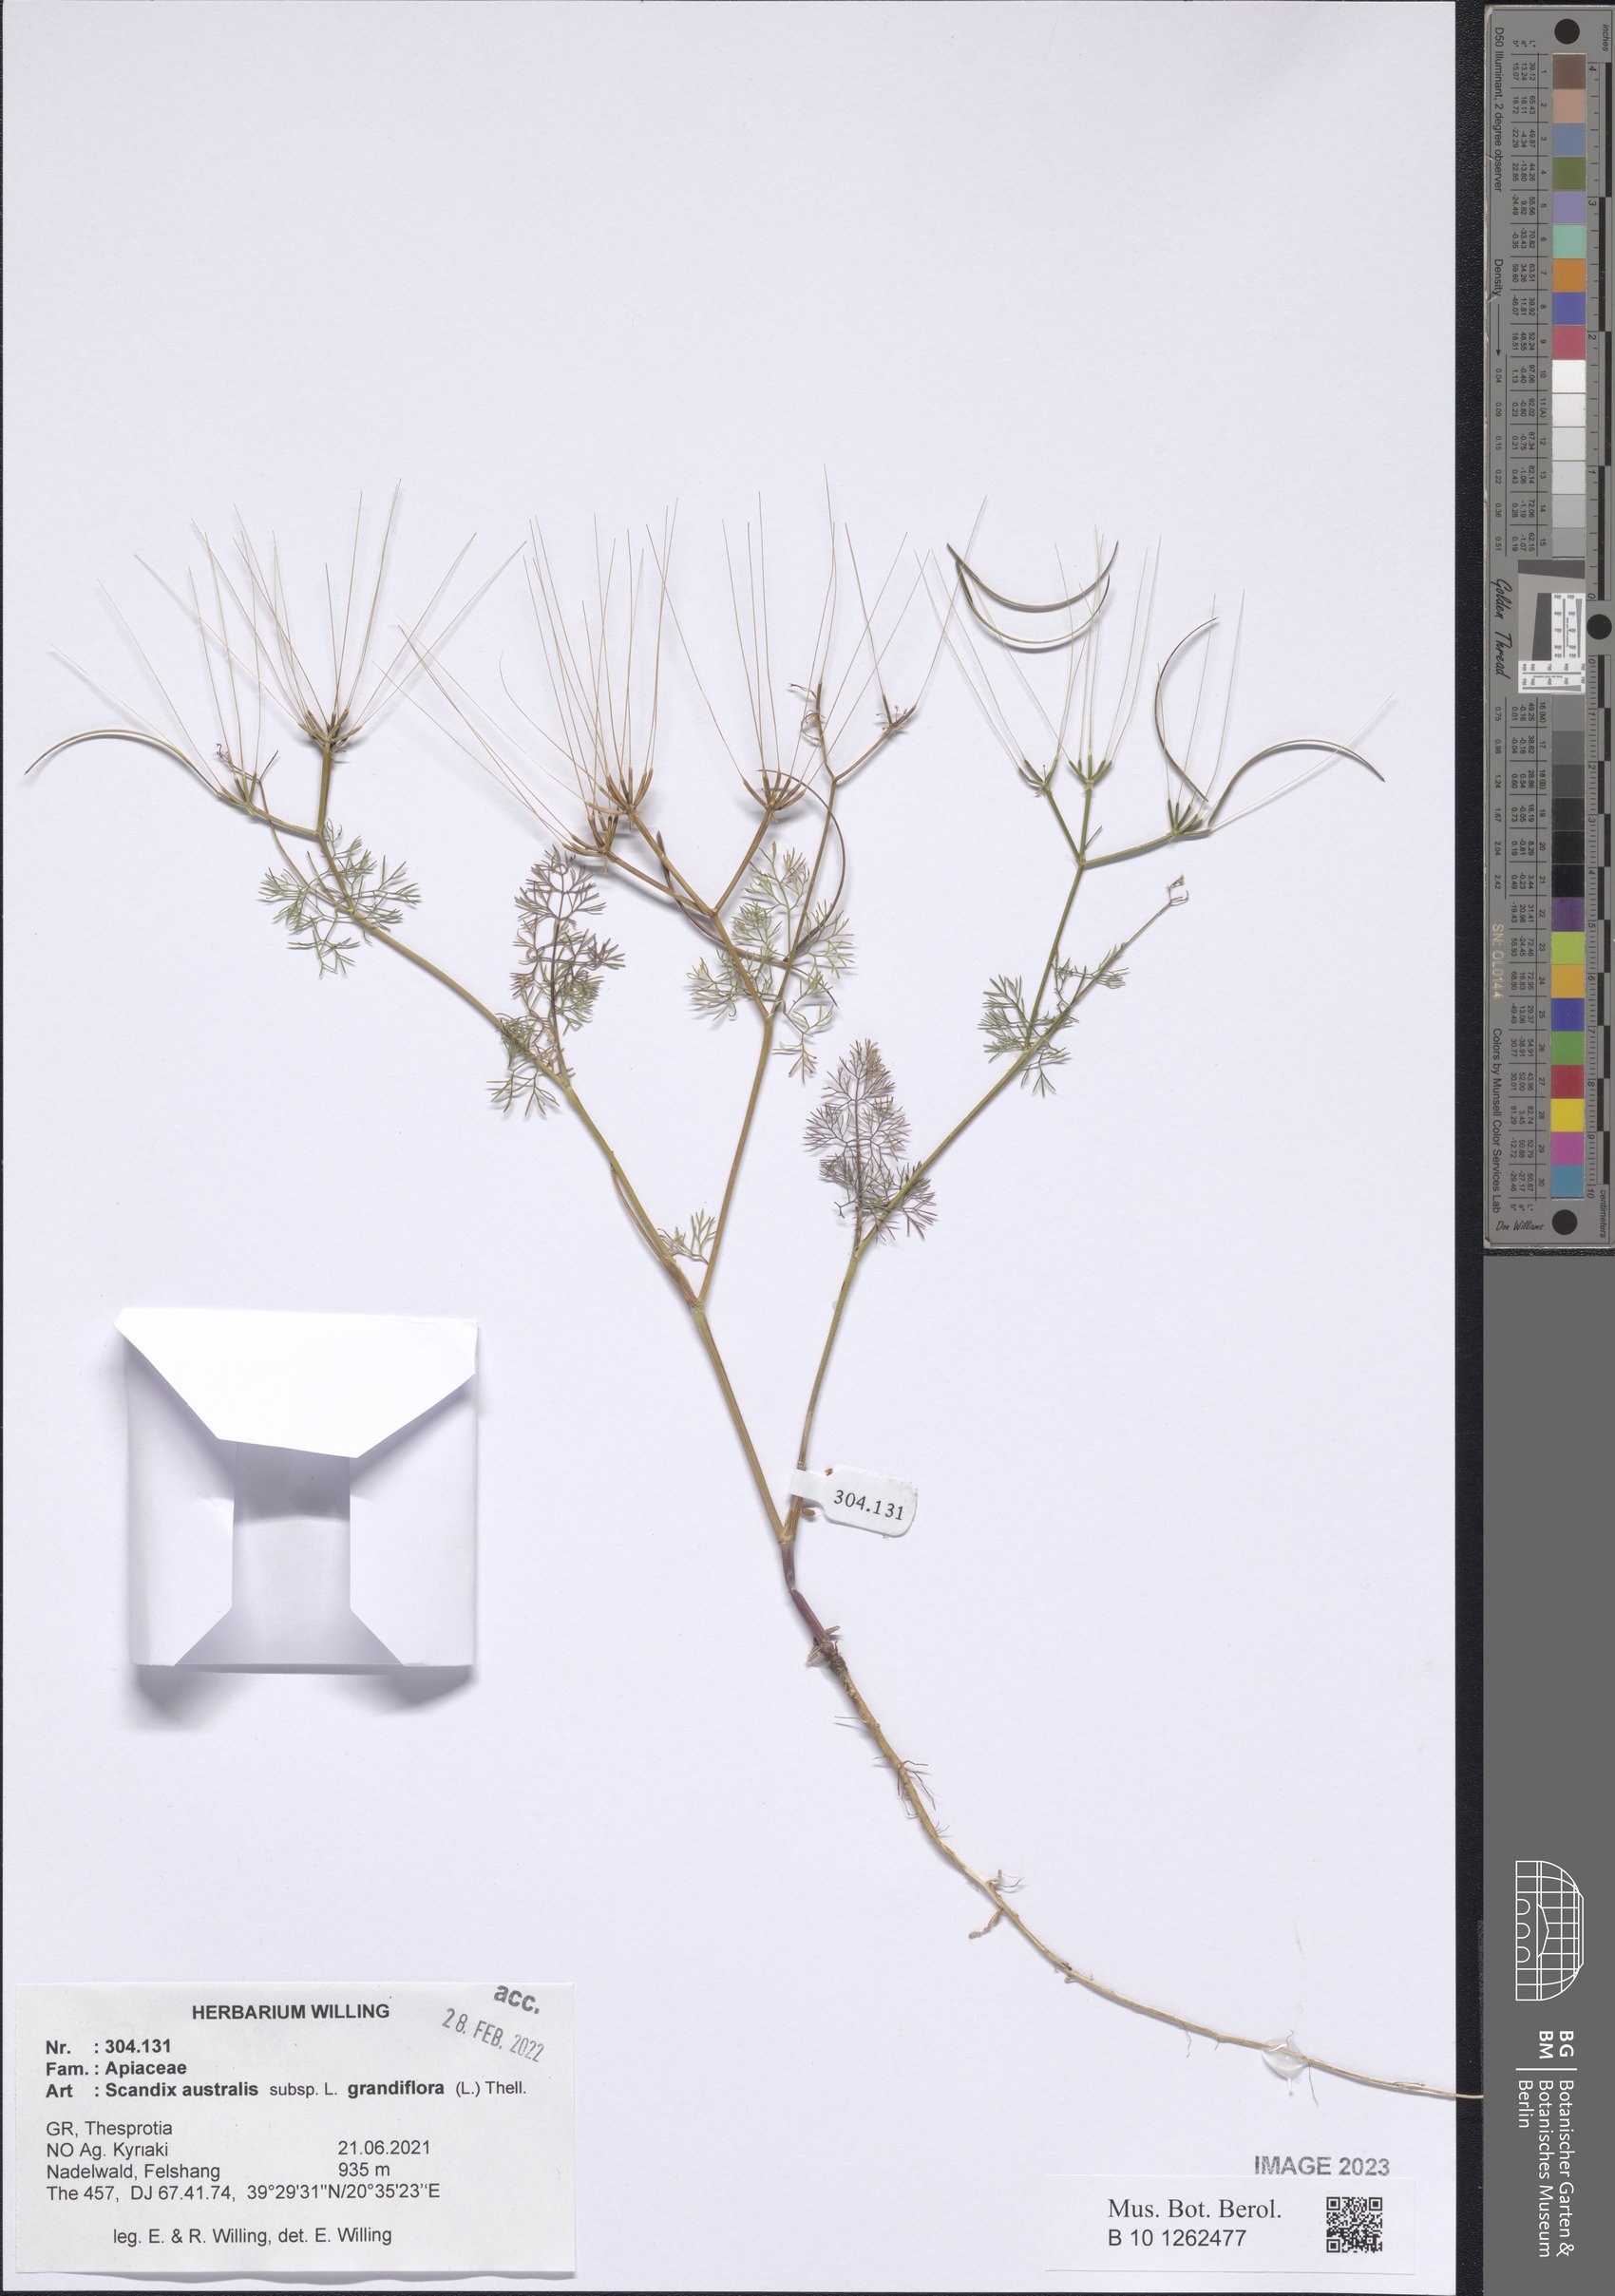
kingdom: Plantae
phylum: Tracheophyta
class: Magnoliopsida
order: Apiales
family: Apiaceae
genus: Scandix
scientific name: Scandix australis
